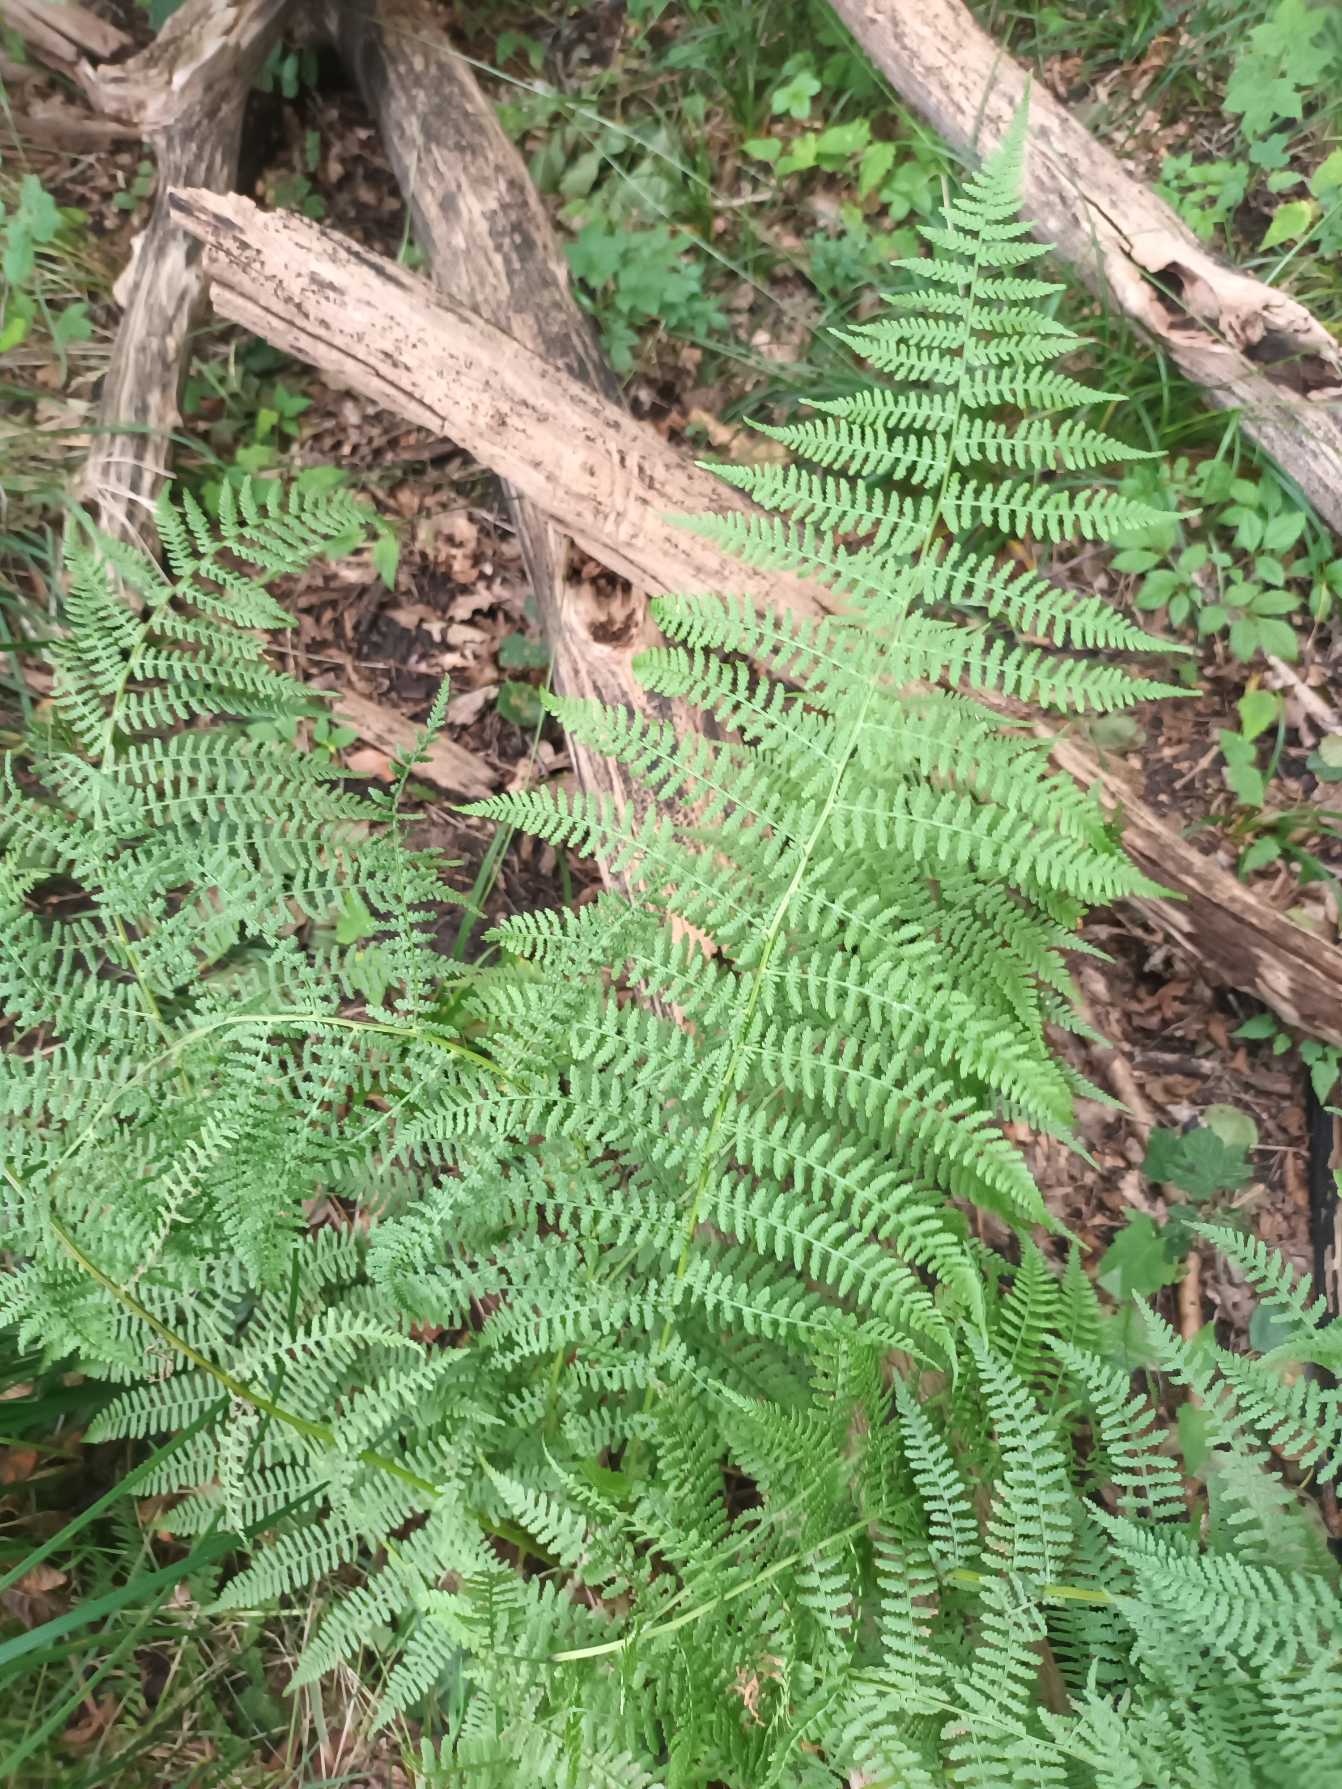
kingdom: Plantae
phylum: Tracheophyta
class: Polypodiopsida
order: Polypodiales
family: Athyriaceae
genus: Athyrium
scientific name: Athyrium filix-femina
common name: Fjerbregne
